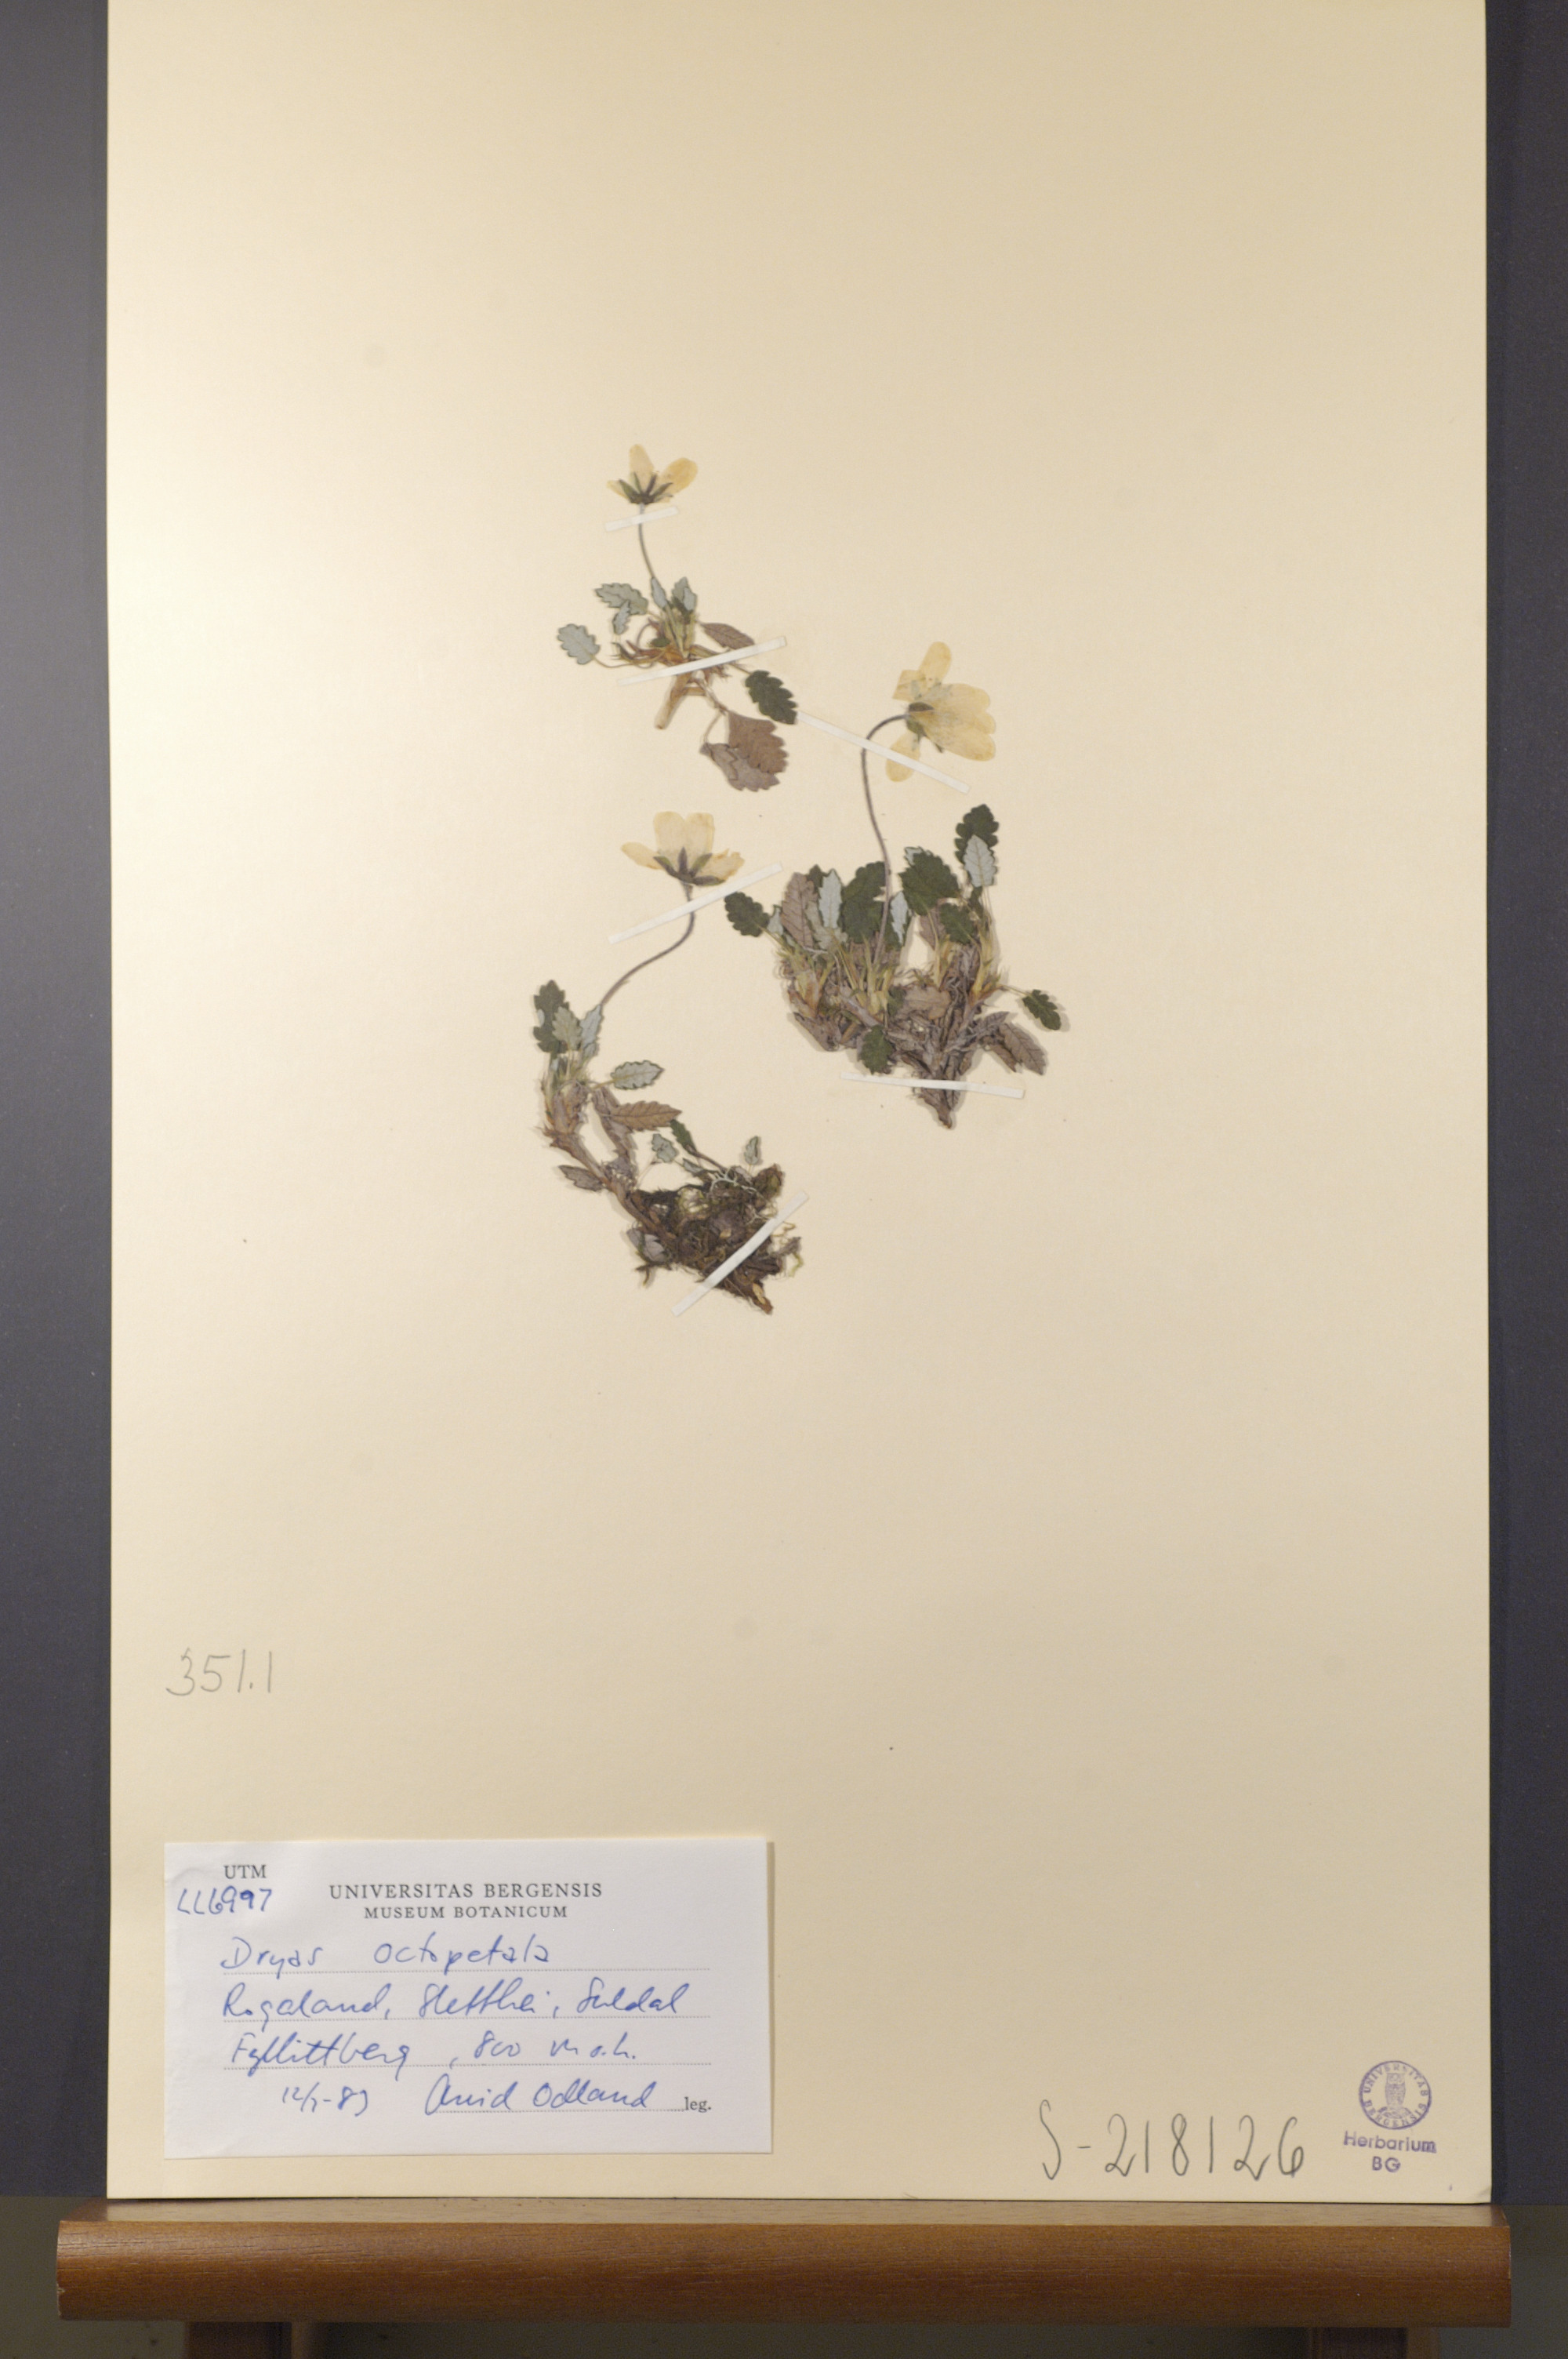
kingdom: Plantae
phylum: Tracheophyta
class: Magnoliopsida
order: Rosales
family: Rosaceae
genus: Dryas
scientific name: Dryas octopetala
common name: Eight-petal mountain-avens
